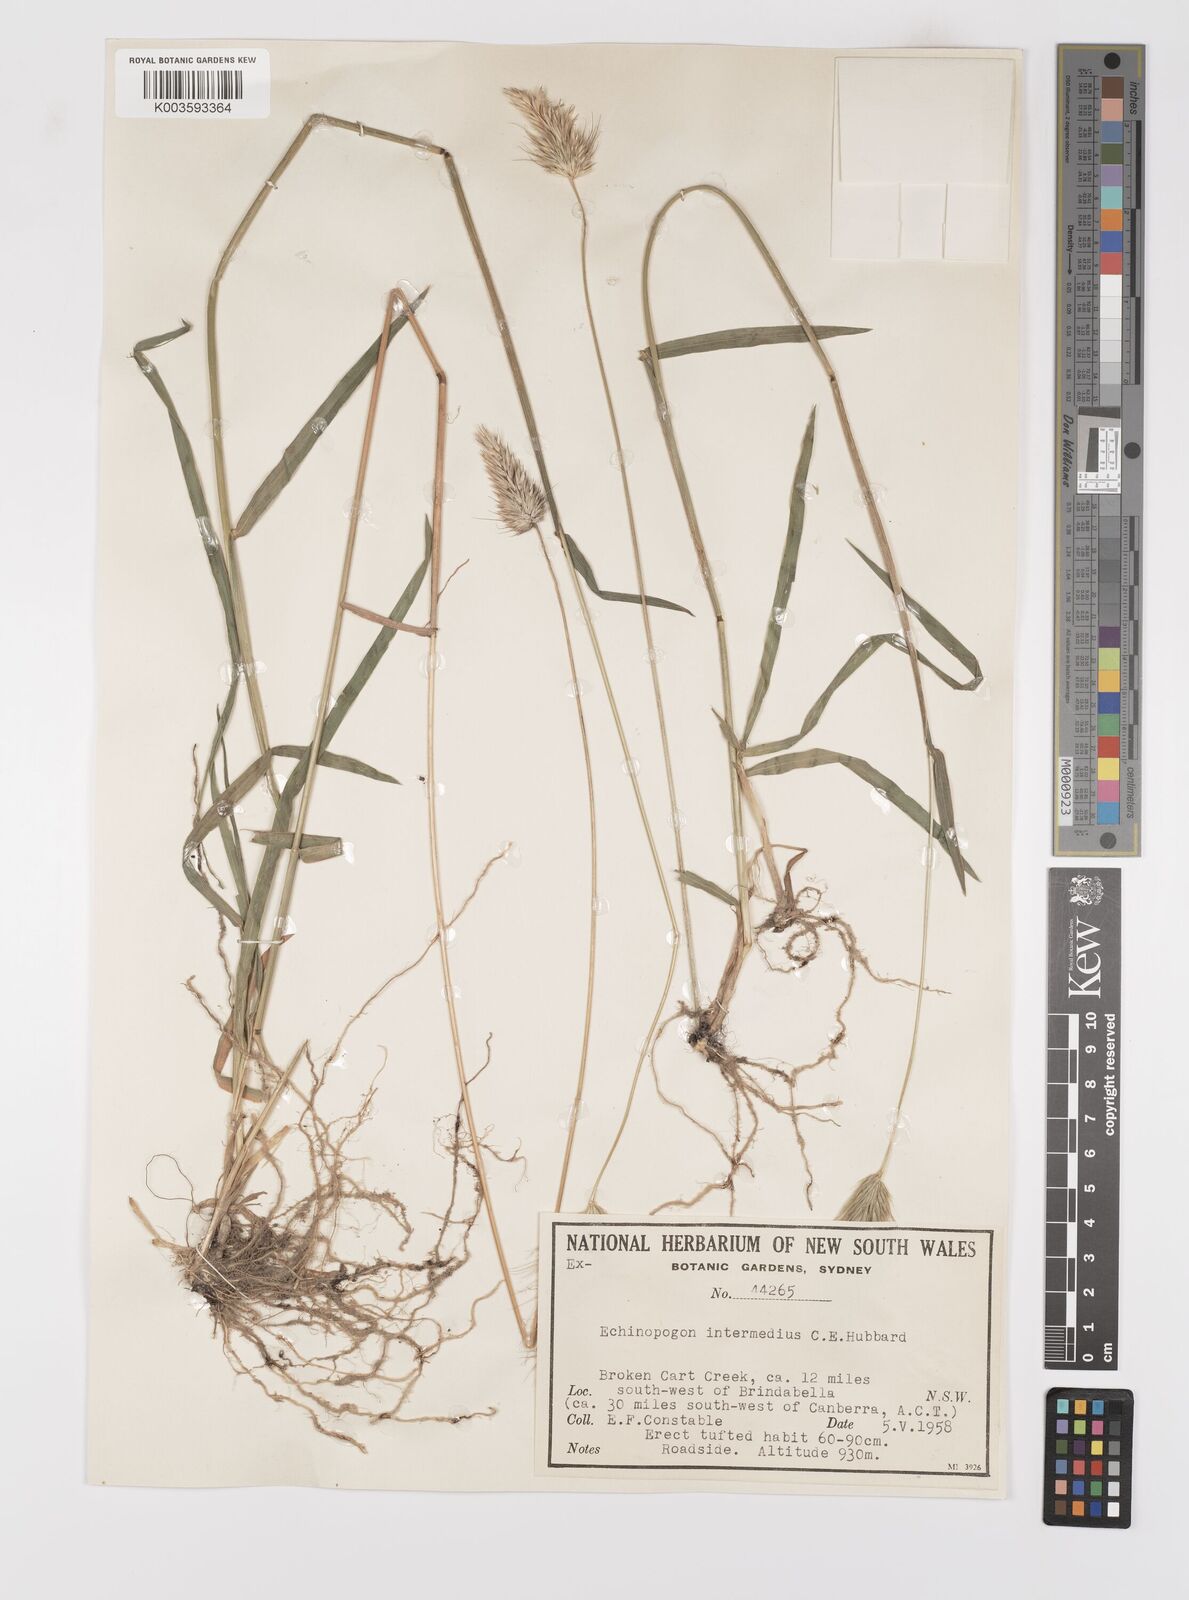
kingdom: Plantae
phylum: Tracheophyta
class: Liliopsida
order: Poales
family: Poaceae
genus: Echinopogon
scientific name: Echinopogon intermedius
